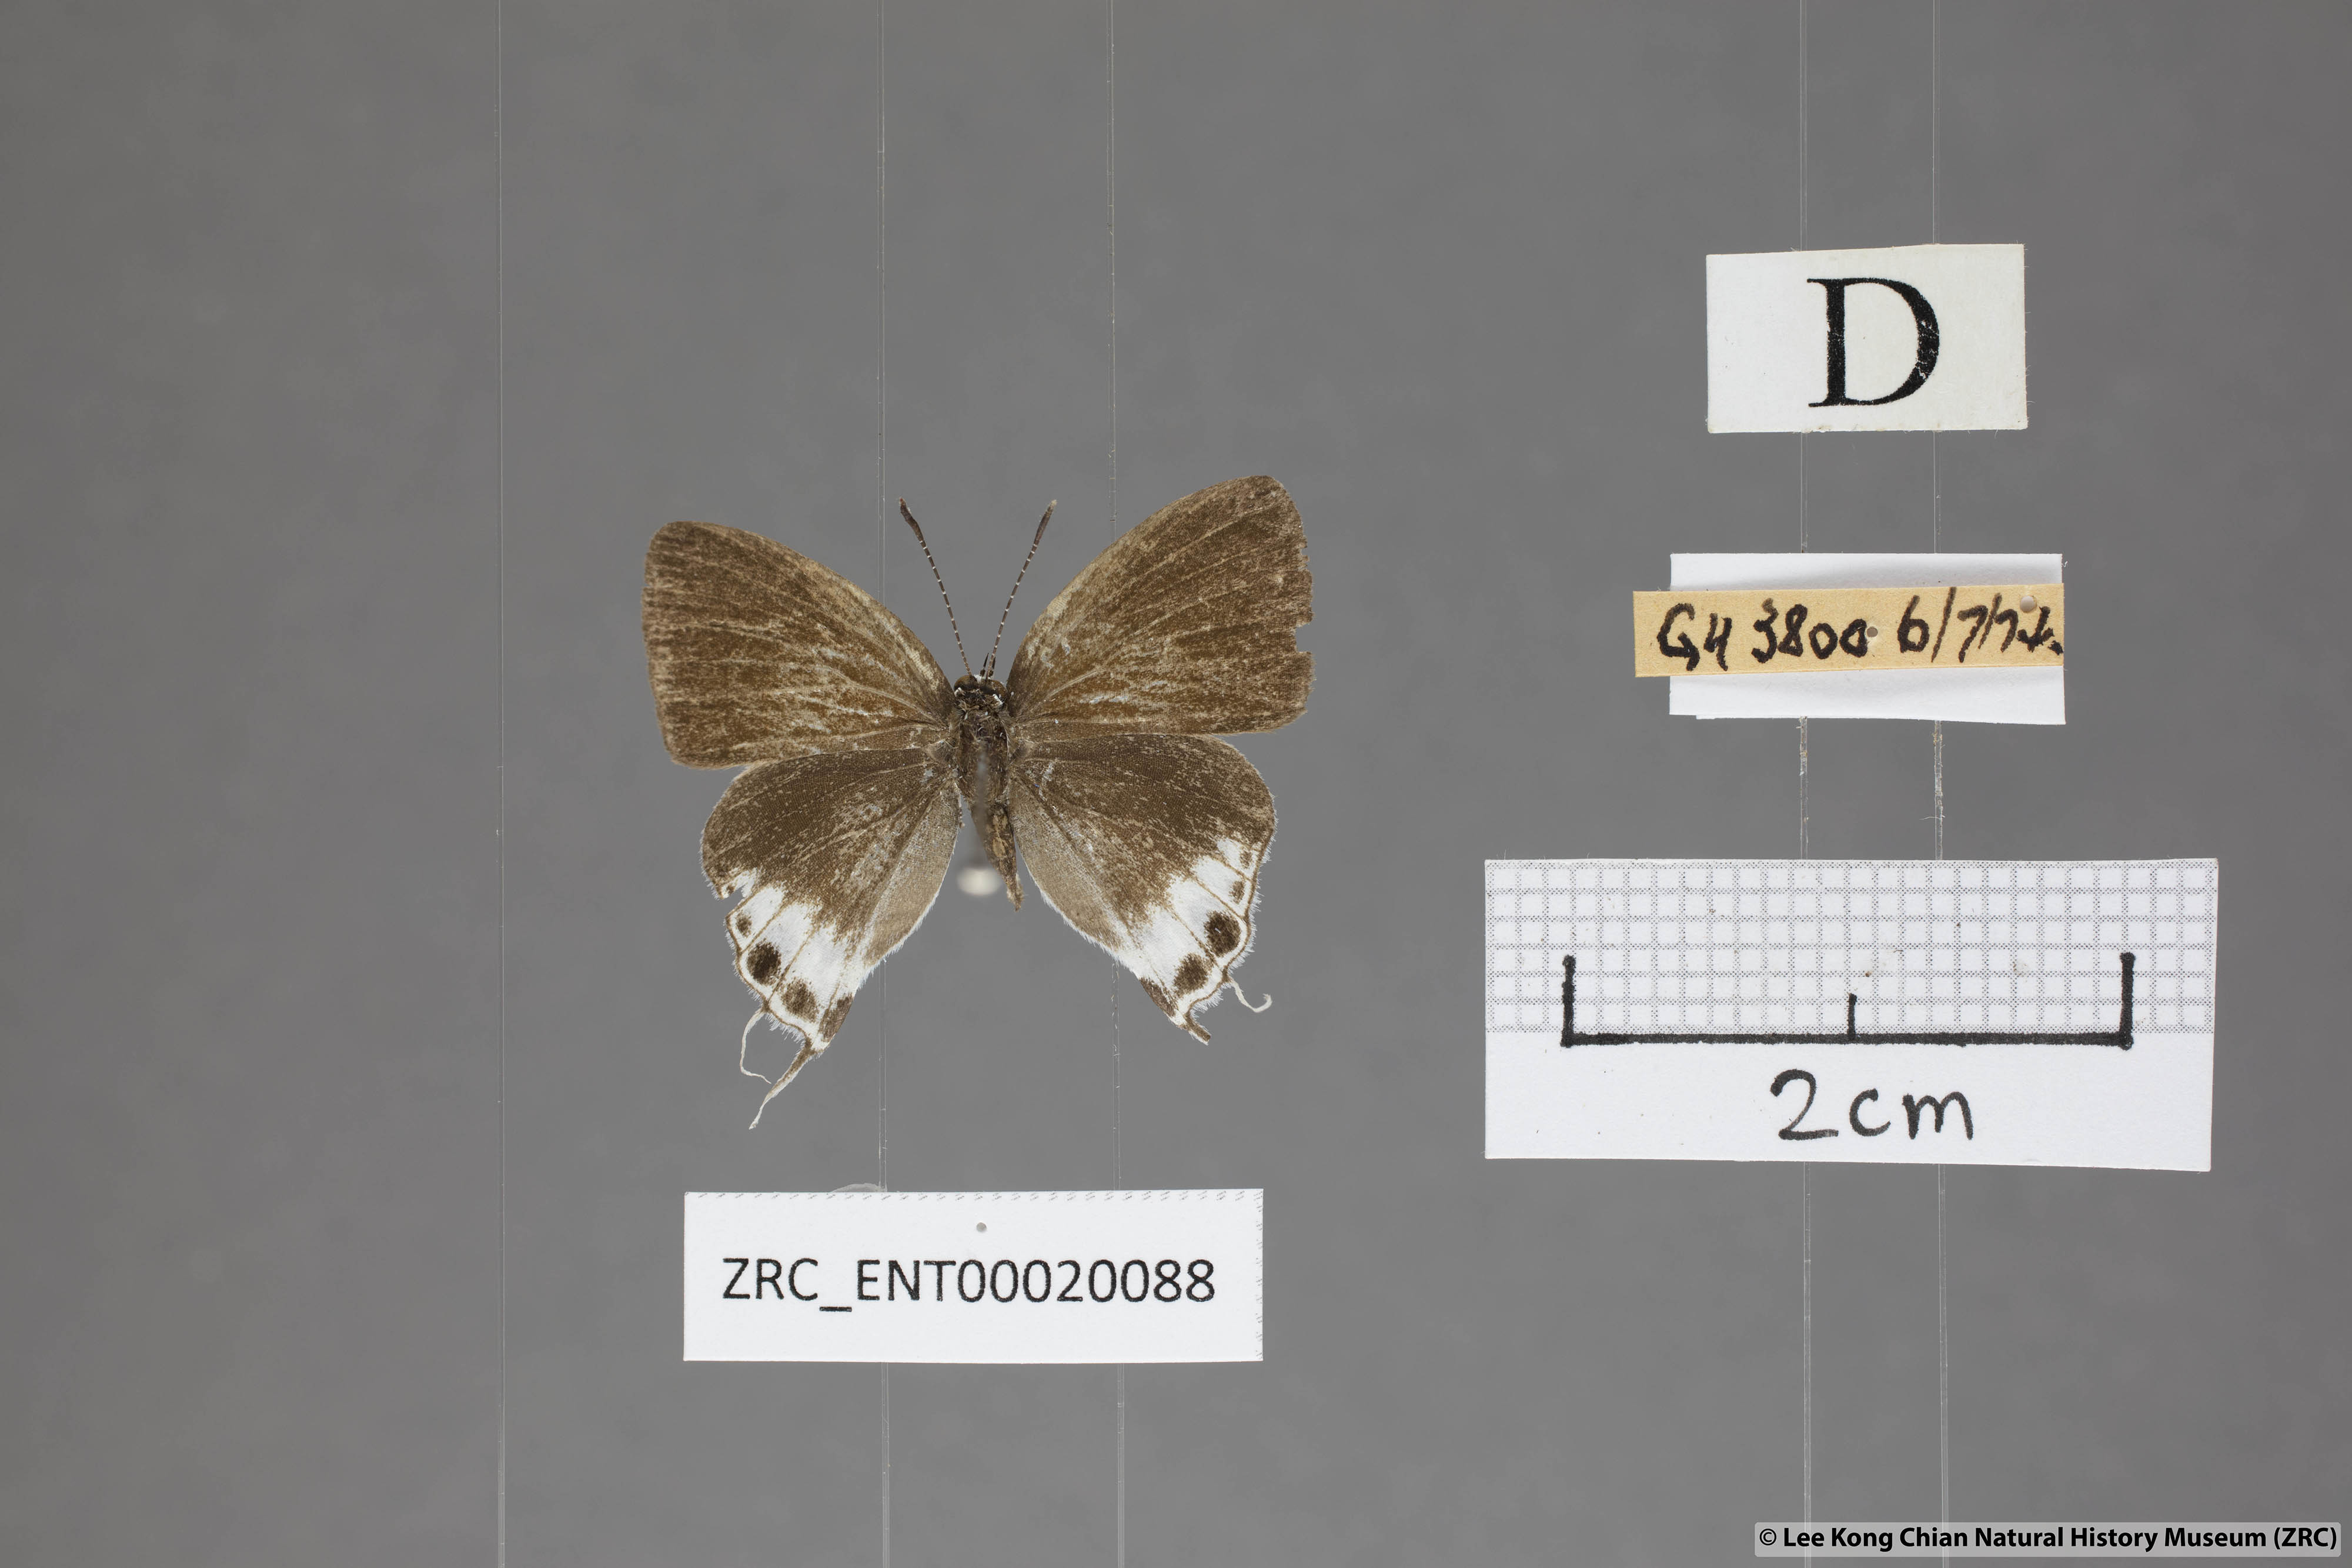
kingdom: Animalia
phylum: Arthropoda
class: Insecta
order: Lepidoptera
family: Lycaenidae
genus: Hypolycaena
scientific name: Hypolycaena amabilis
